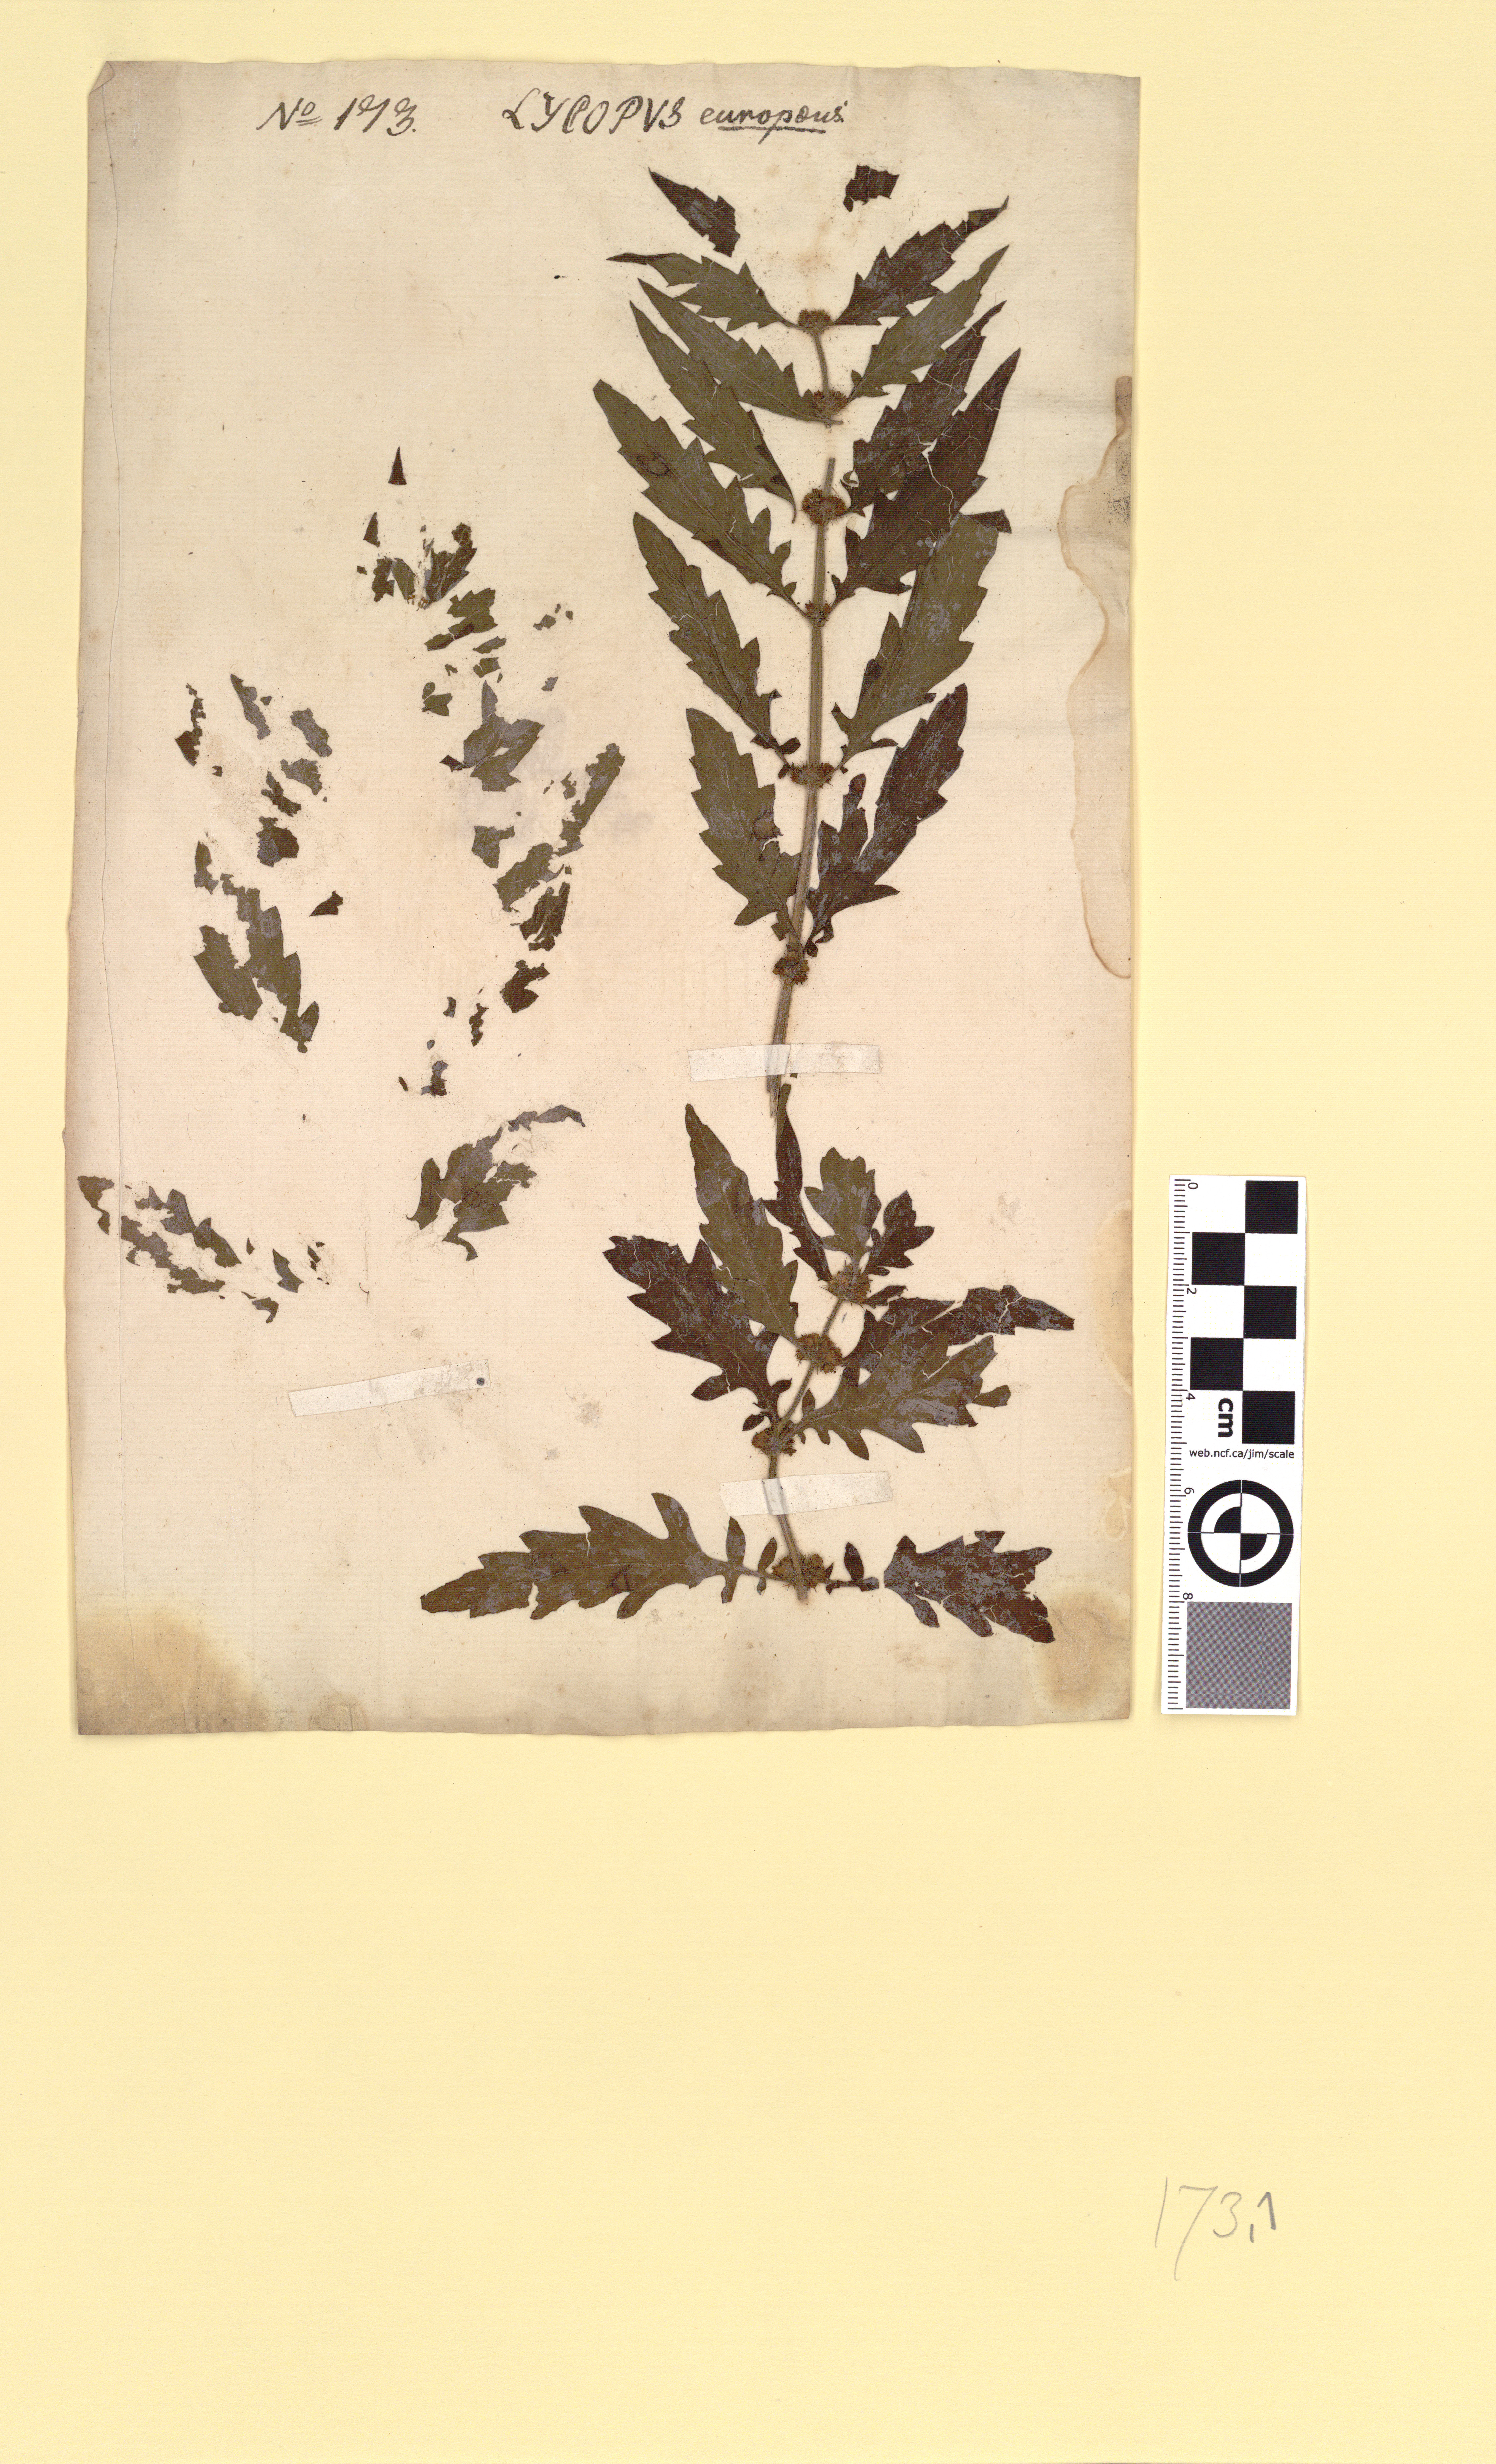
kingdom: Plantae
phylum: Tracheophyta
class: Magnoliopsida
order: Lamiales
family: Lamiaceae
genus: Lycopus
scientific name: Lycopus europaeus
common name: European bugleweed
